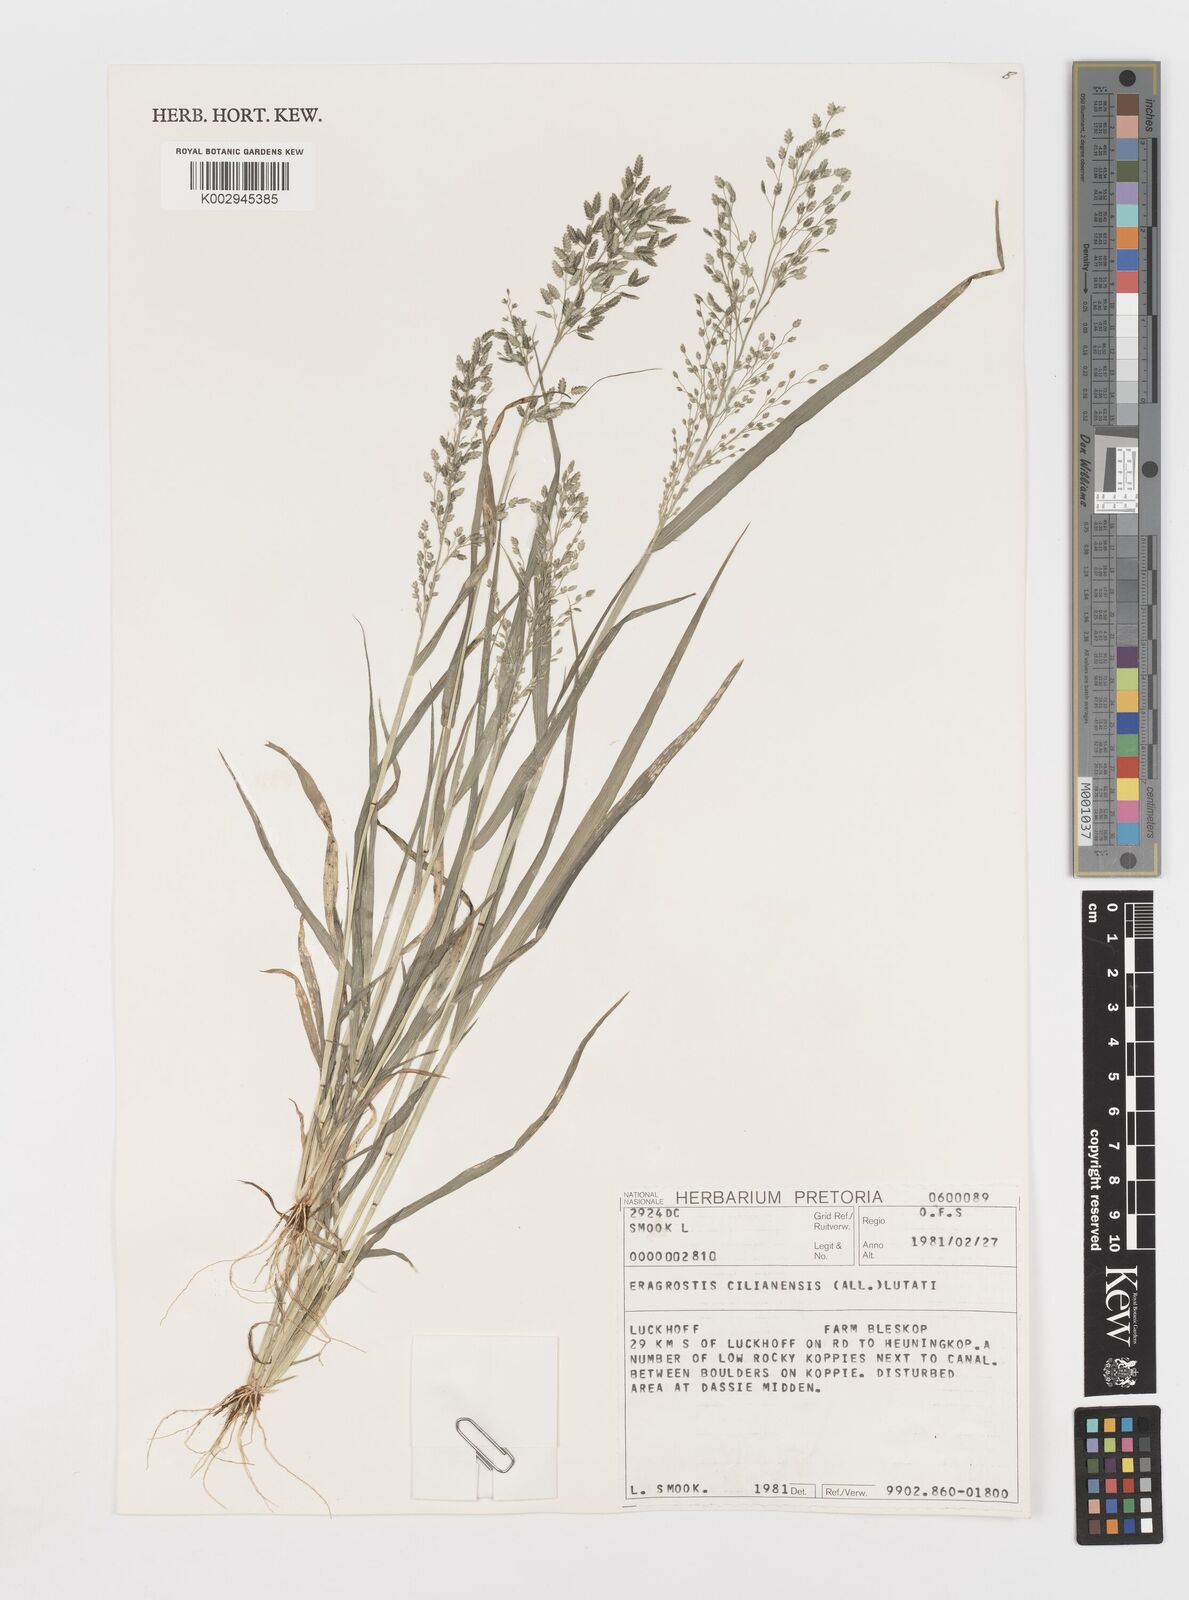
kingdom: Plantae
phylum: Tracheophyta
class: Liliopsida
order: Poales
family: Poaceae
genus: Eragrostis
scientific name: Eragrostis cilianensis
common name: Stinkgrass
